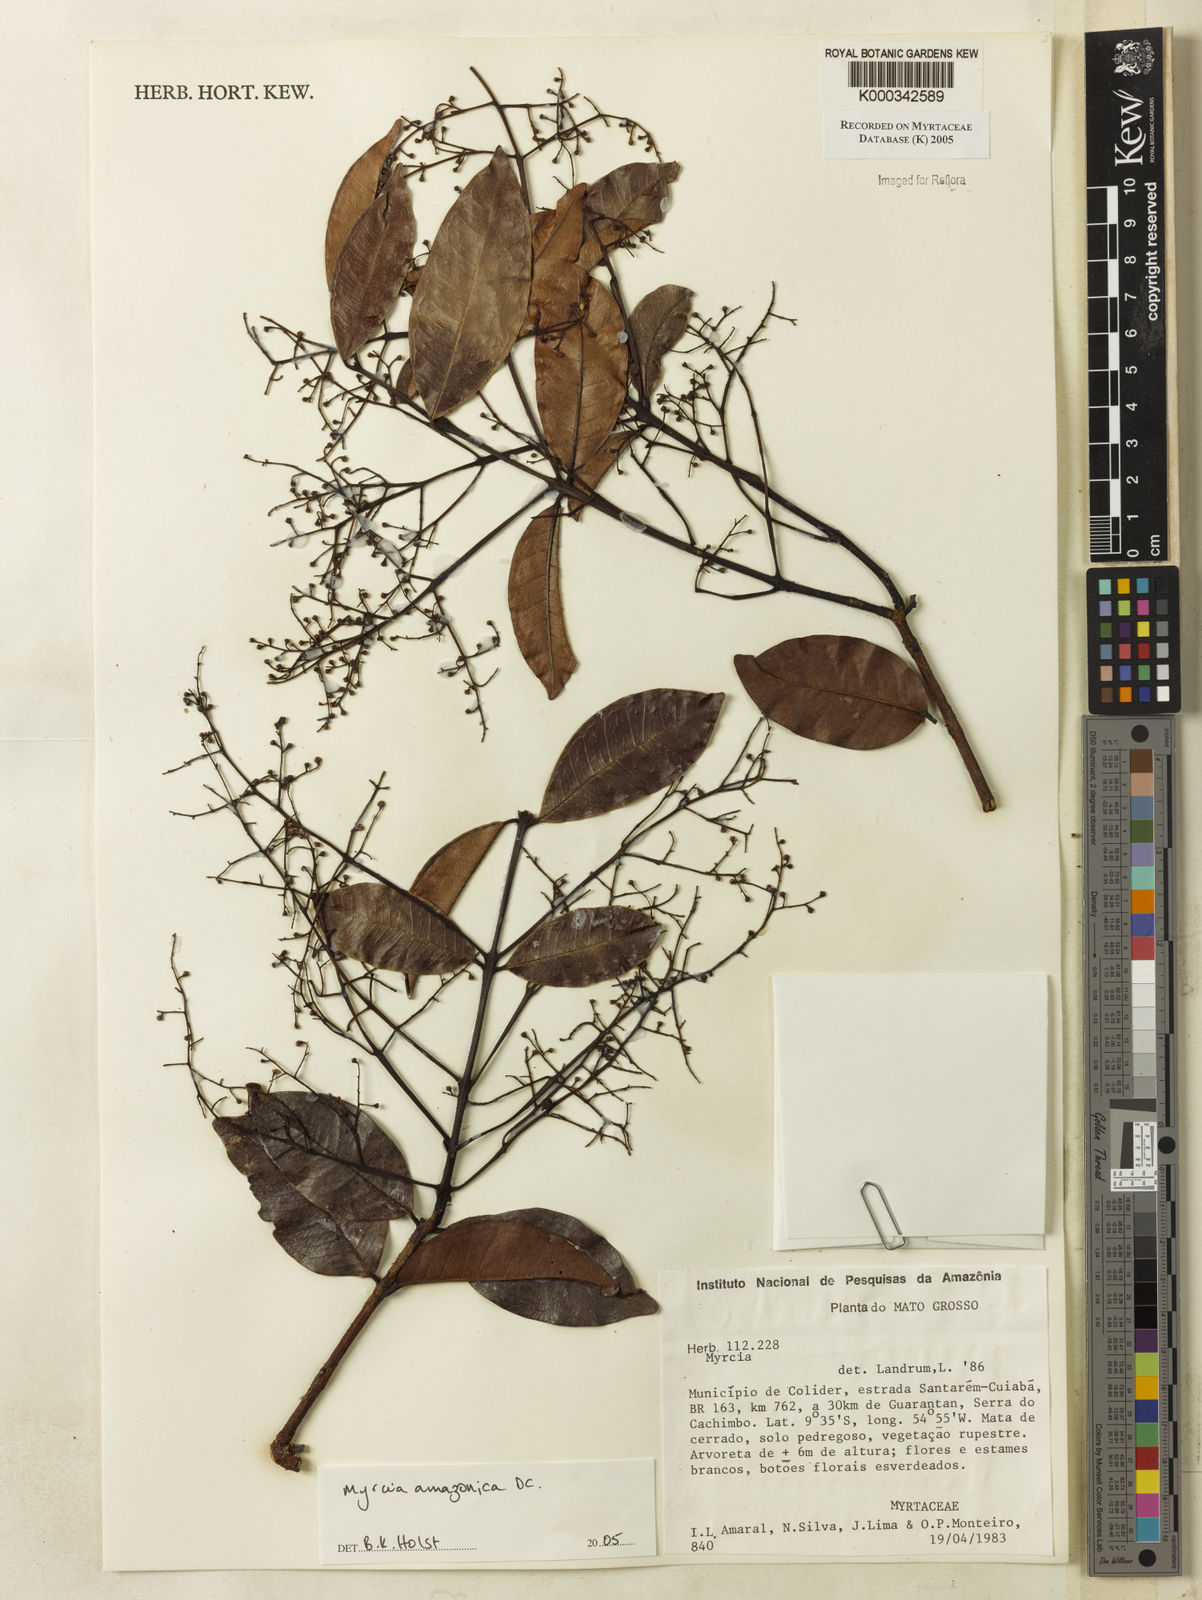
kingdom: Plantae
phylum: Tracheophyta
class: Magnoliopsida
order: Myrtales
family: Myrtaceae
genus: Myrcia
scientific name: Myrcia amazonica
